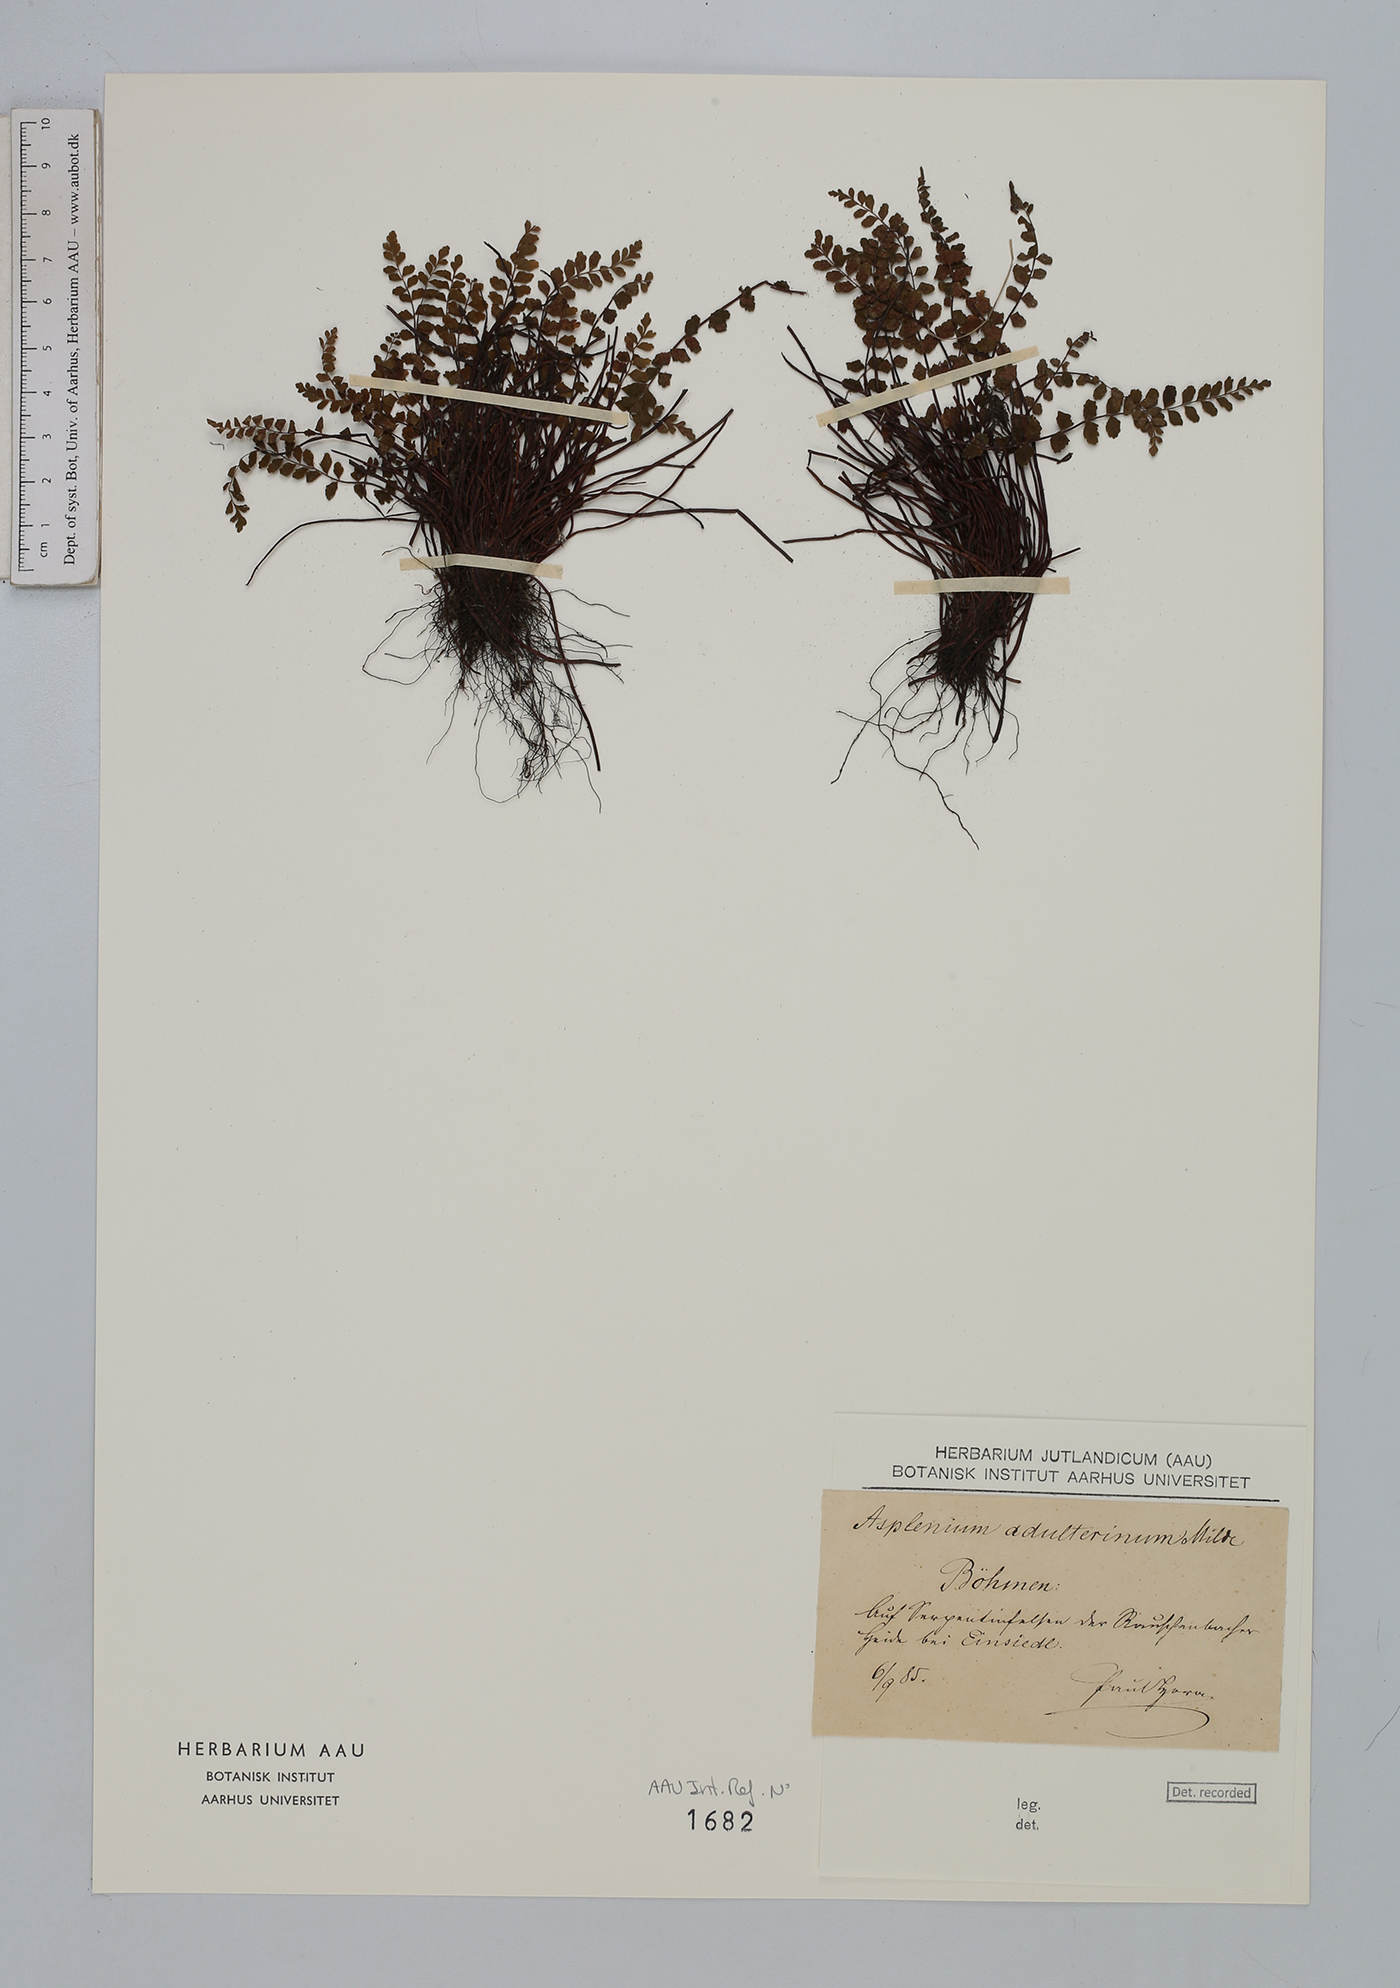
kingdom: Plantae
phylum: Tracheophyta
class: Polypodiopsida
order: Polypodiales
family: Aspleniaceae
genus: Asplenium
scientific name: Asplenium adulterinum
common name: Adulterated spleenwort
